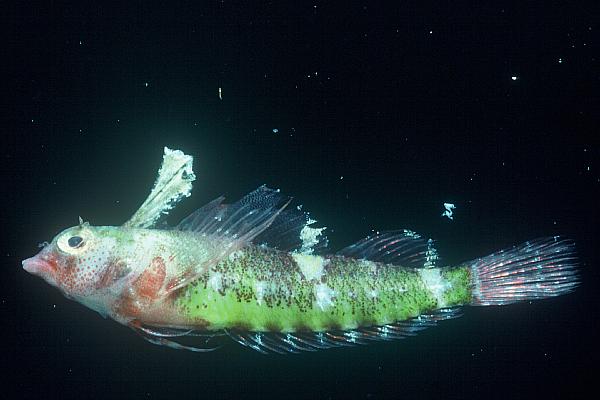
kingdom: Animalia
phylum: Chordata
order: Perciformes
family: Tripterygiidae
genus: Enneapterygius
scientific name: Enneapterygius
